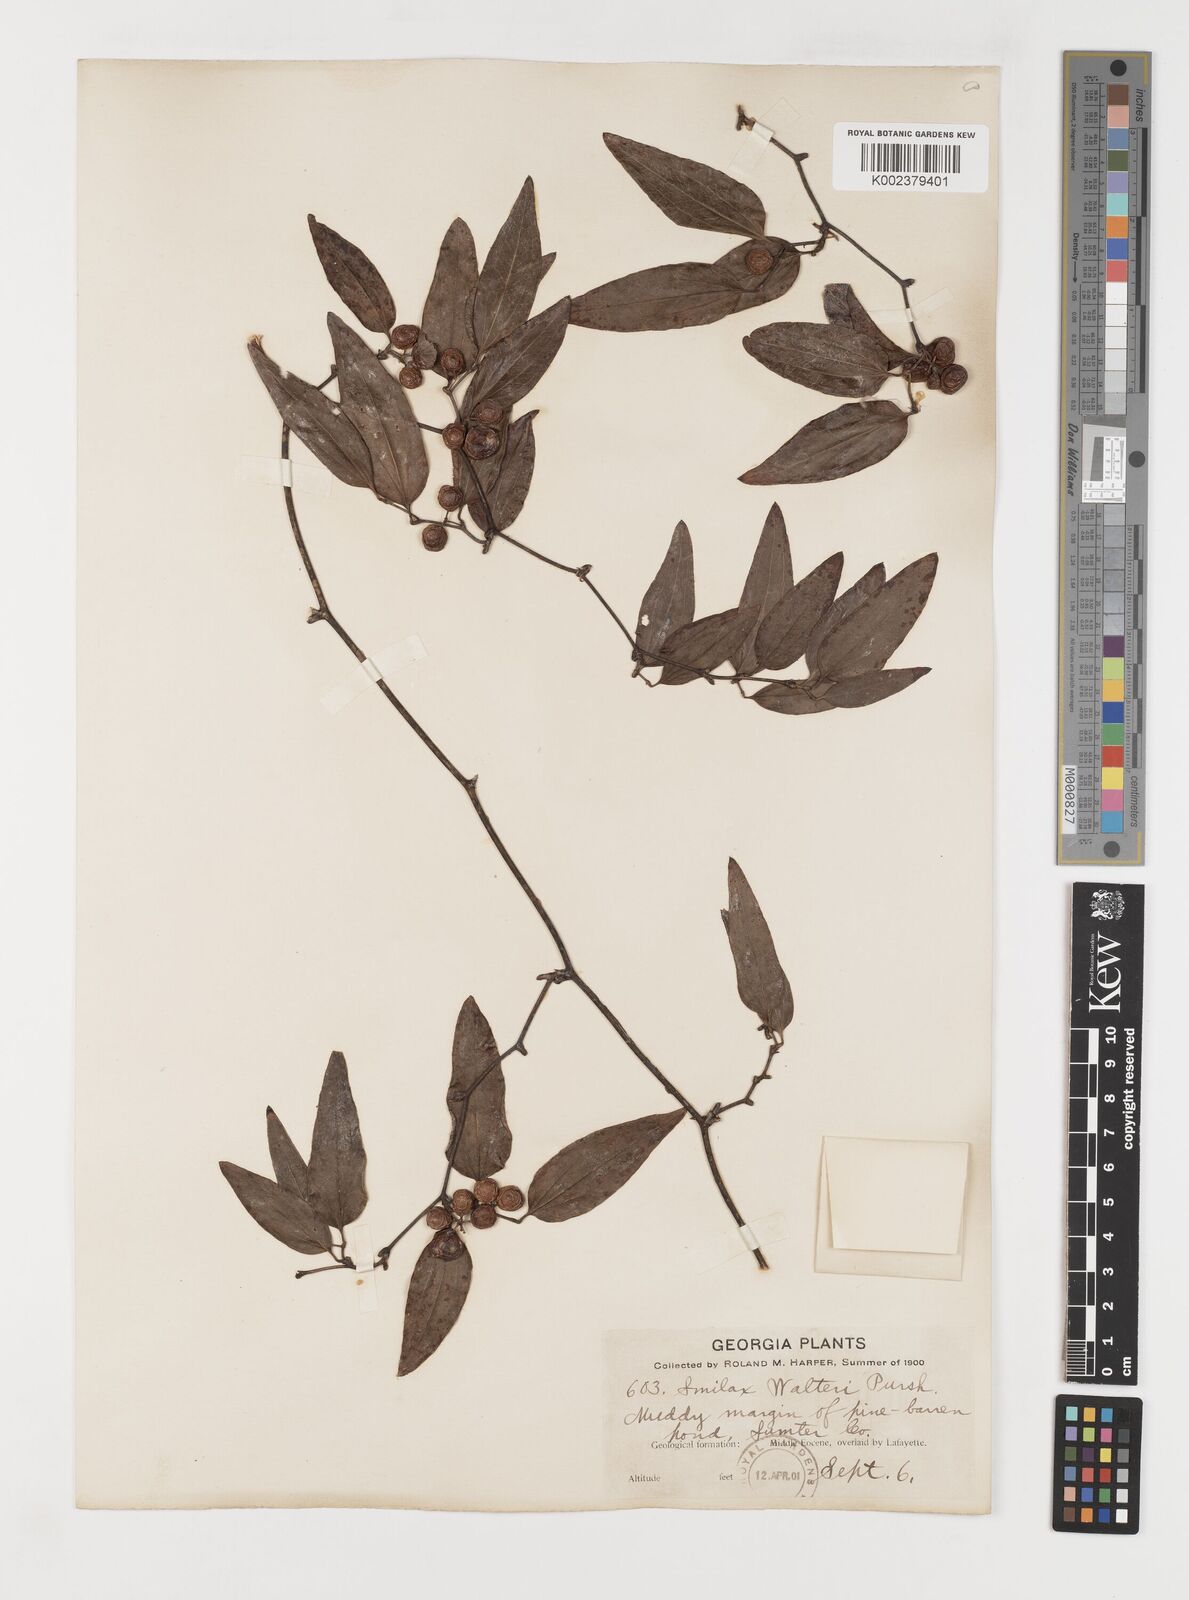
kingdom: Plantae
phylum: Tracheophyta
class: Liliopsida
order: Liliales
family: Smilacaceae
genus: Smilax
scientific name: Smilax walteri
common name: Coral greenbrier
